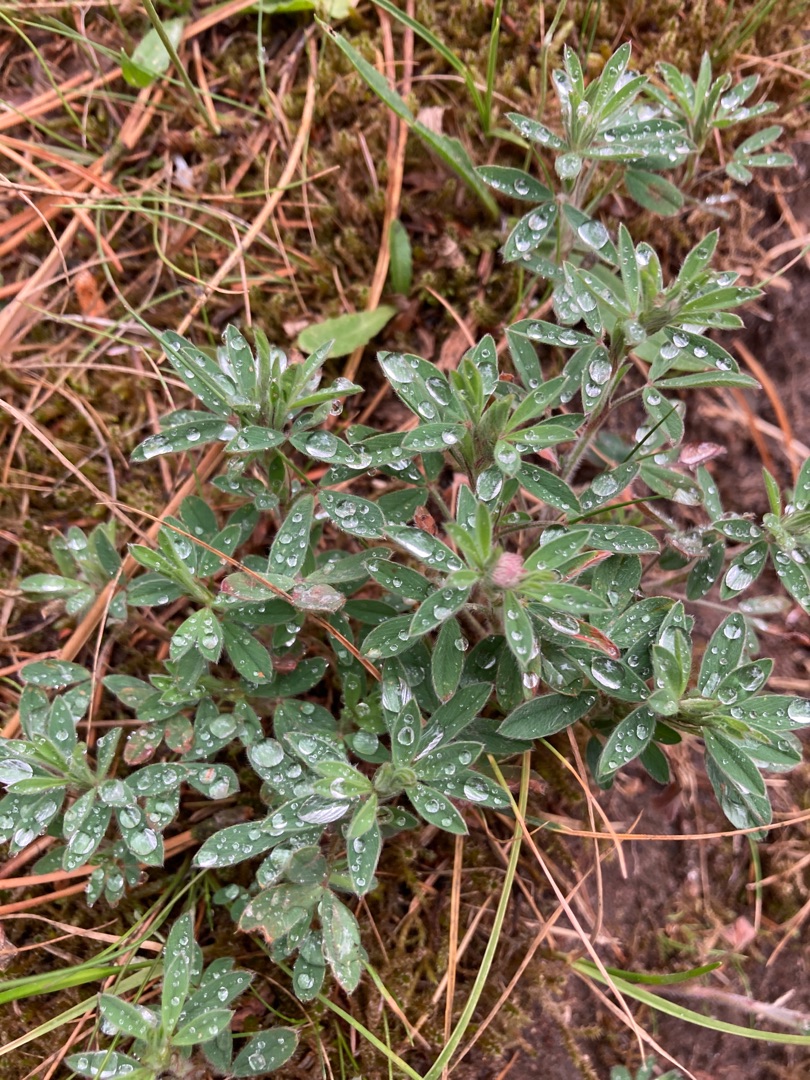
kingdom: Plantae
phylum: Tracheophyta
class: Magnoliopsida
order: Fabales
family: Fabaceae
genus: Trifolium
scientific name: Trifolium arvense
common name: Hare-kløver
